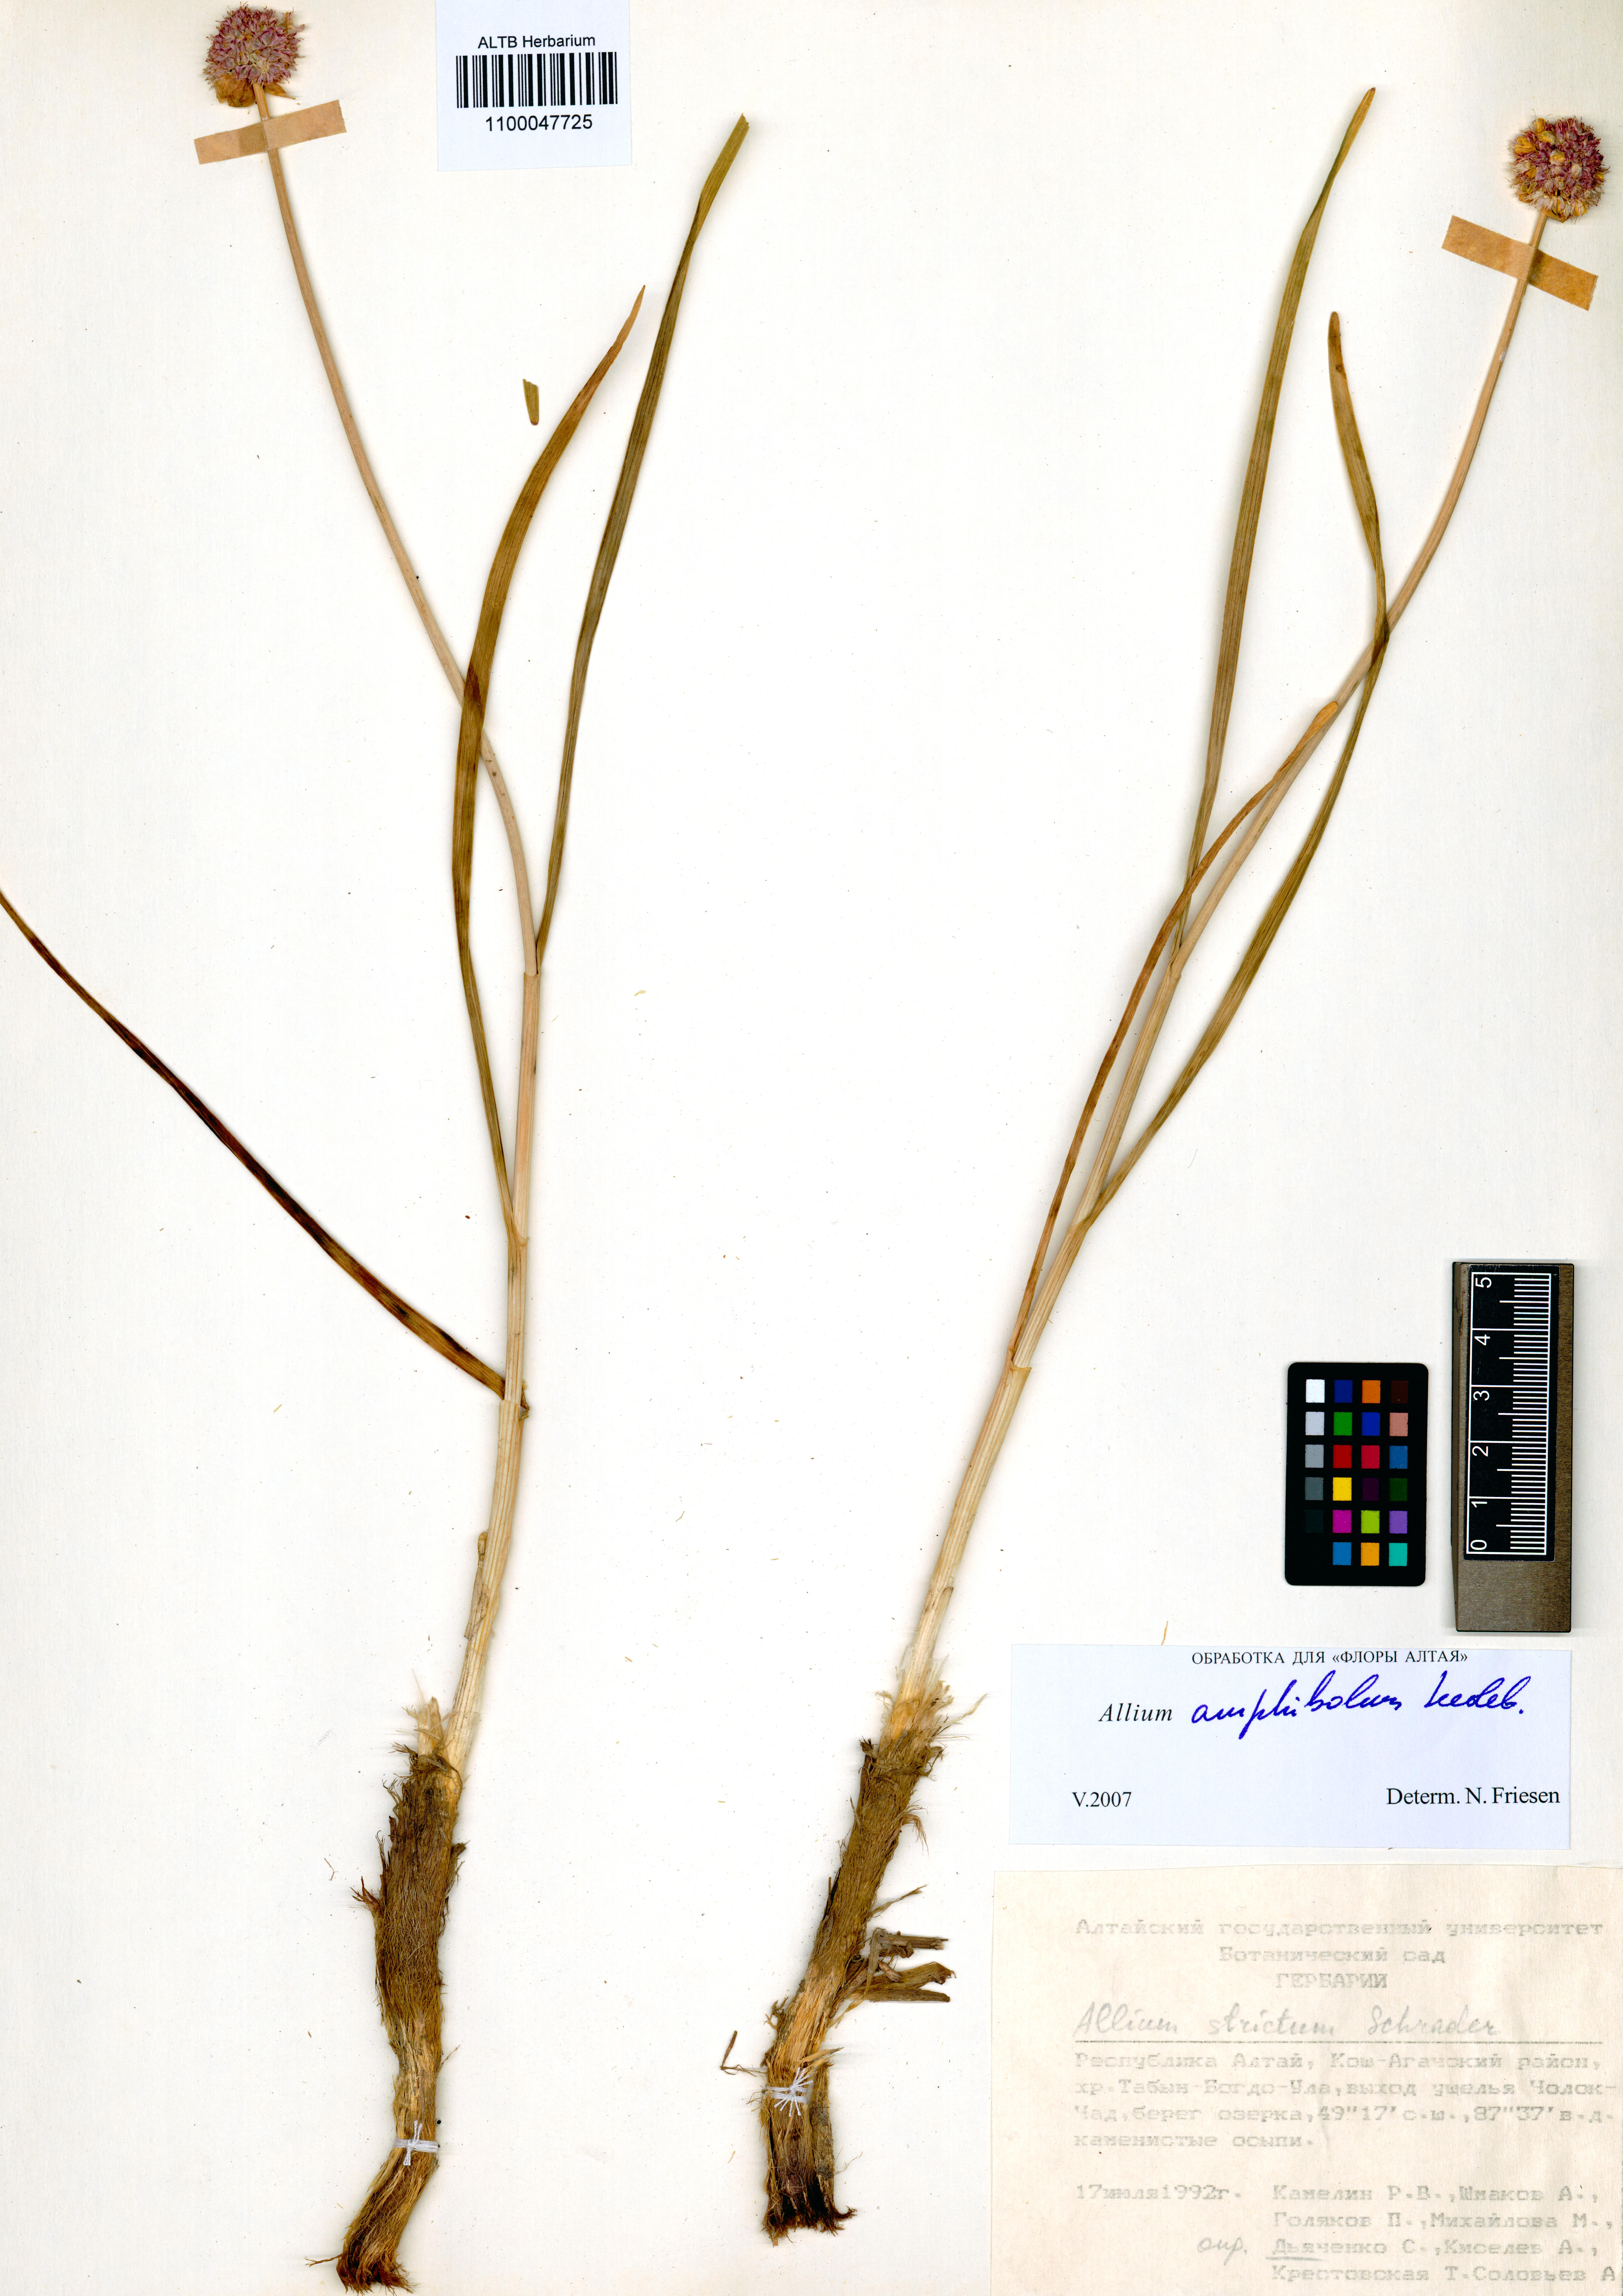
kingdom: Plantae
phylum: Tracheophyta
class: Liliopsida
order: Asparagales
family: Amaryllidaceae
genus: Allium
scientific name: Allium amphibolum
